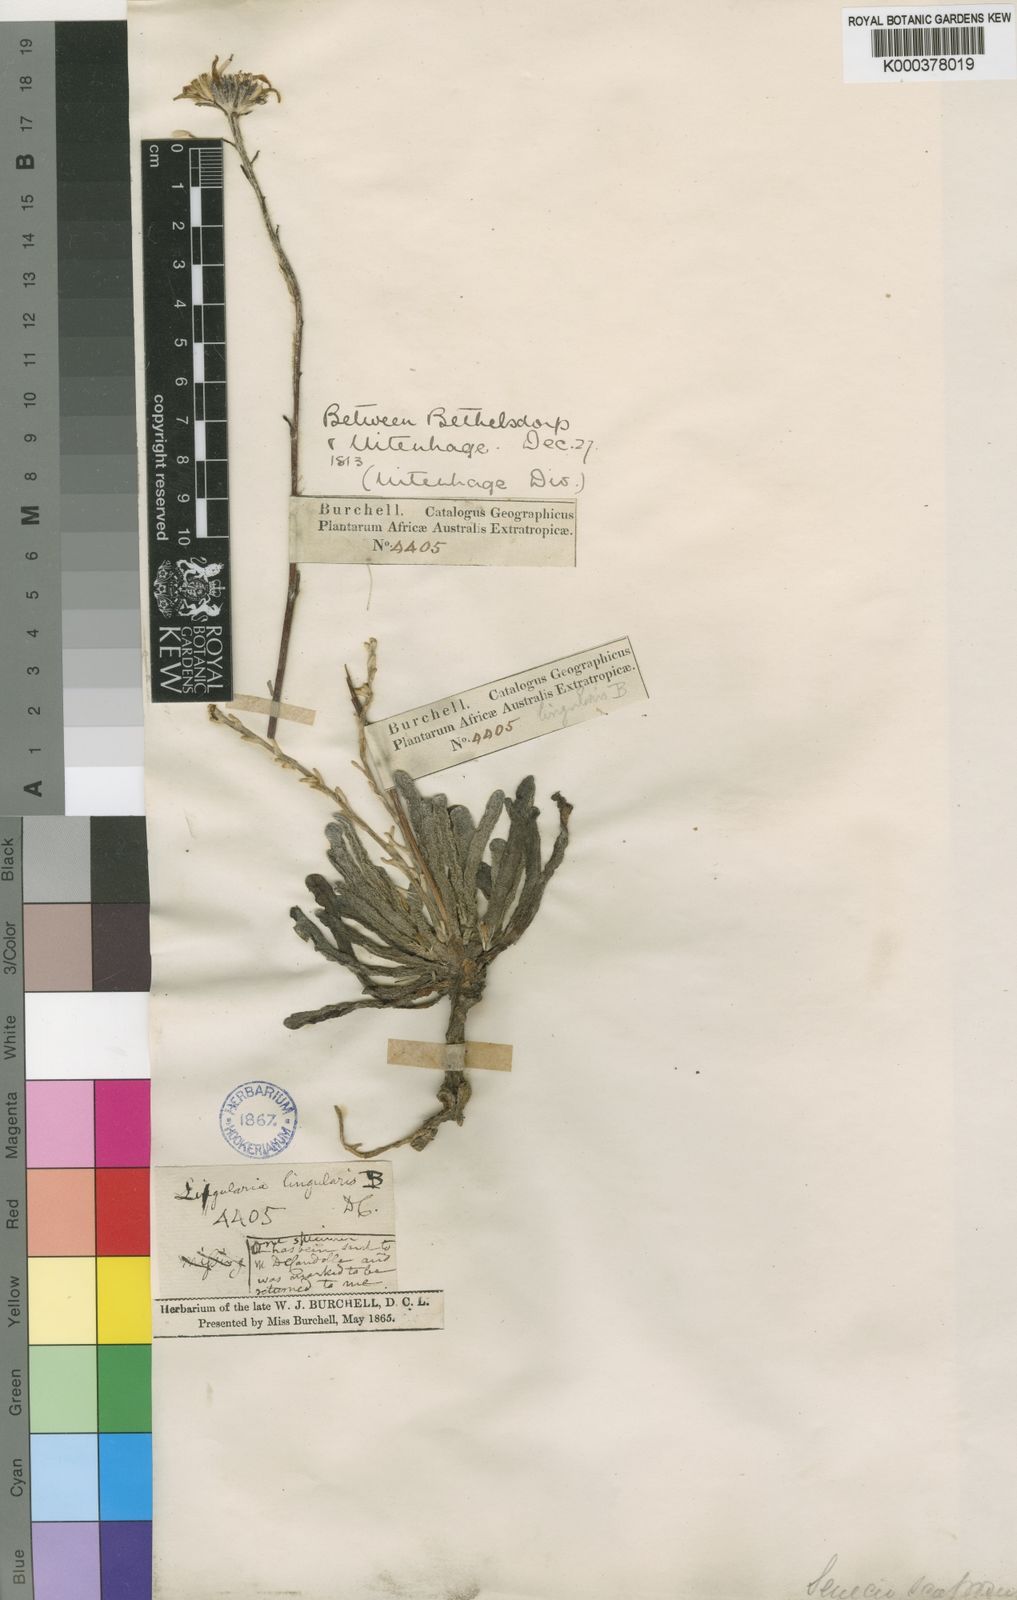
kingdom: Plantae
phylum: Tracheophyta
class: Magnoliopsida
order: Asterales
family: Asteraceae
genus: Caputia
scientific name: Caputia scaposa
